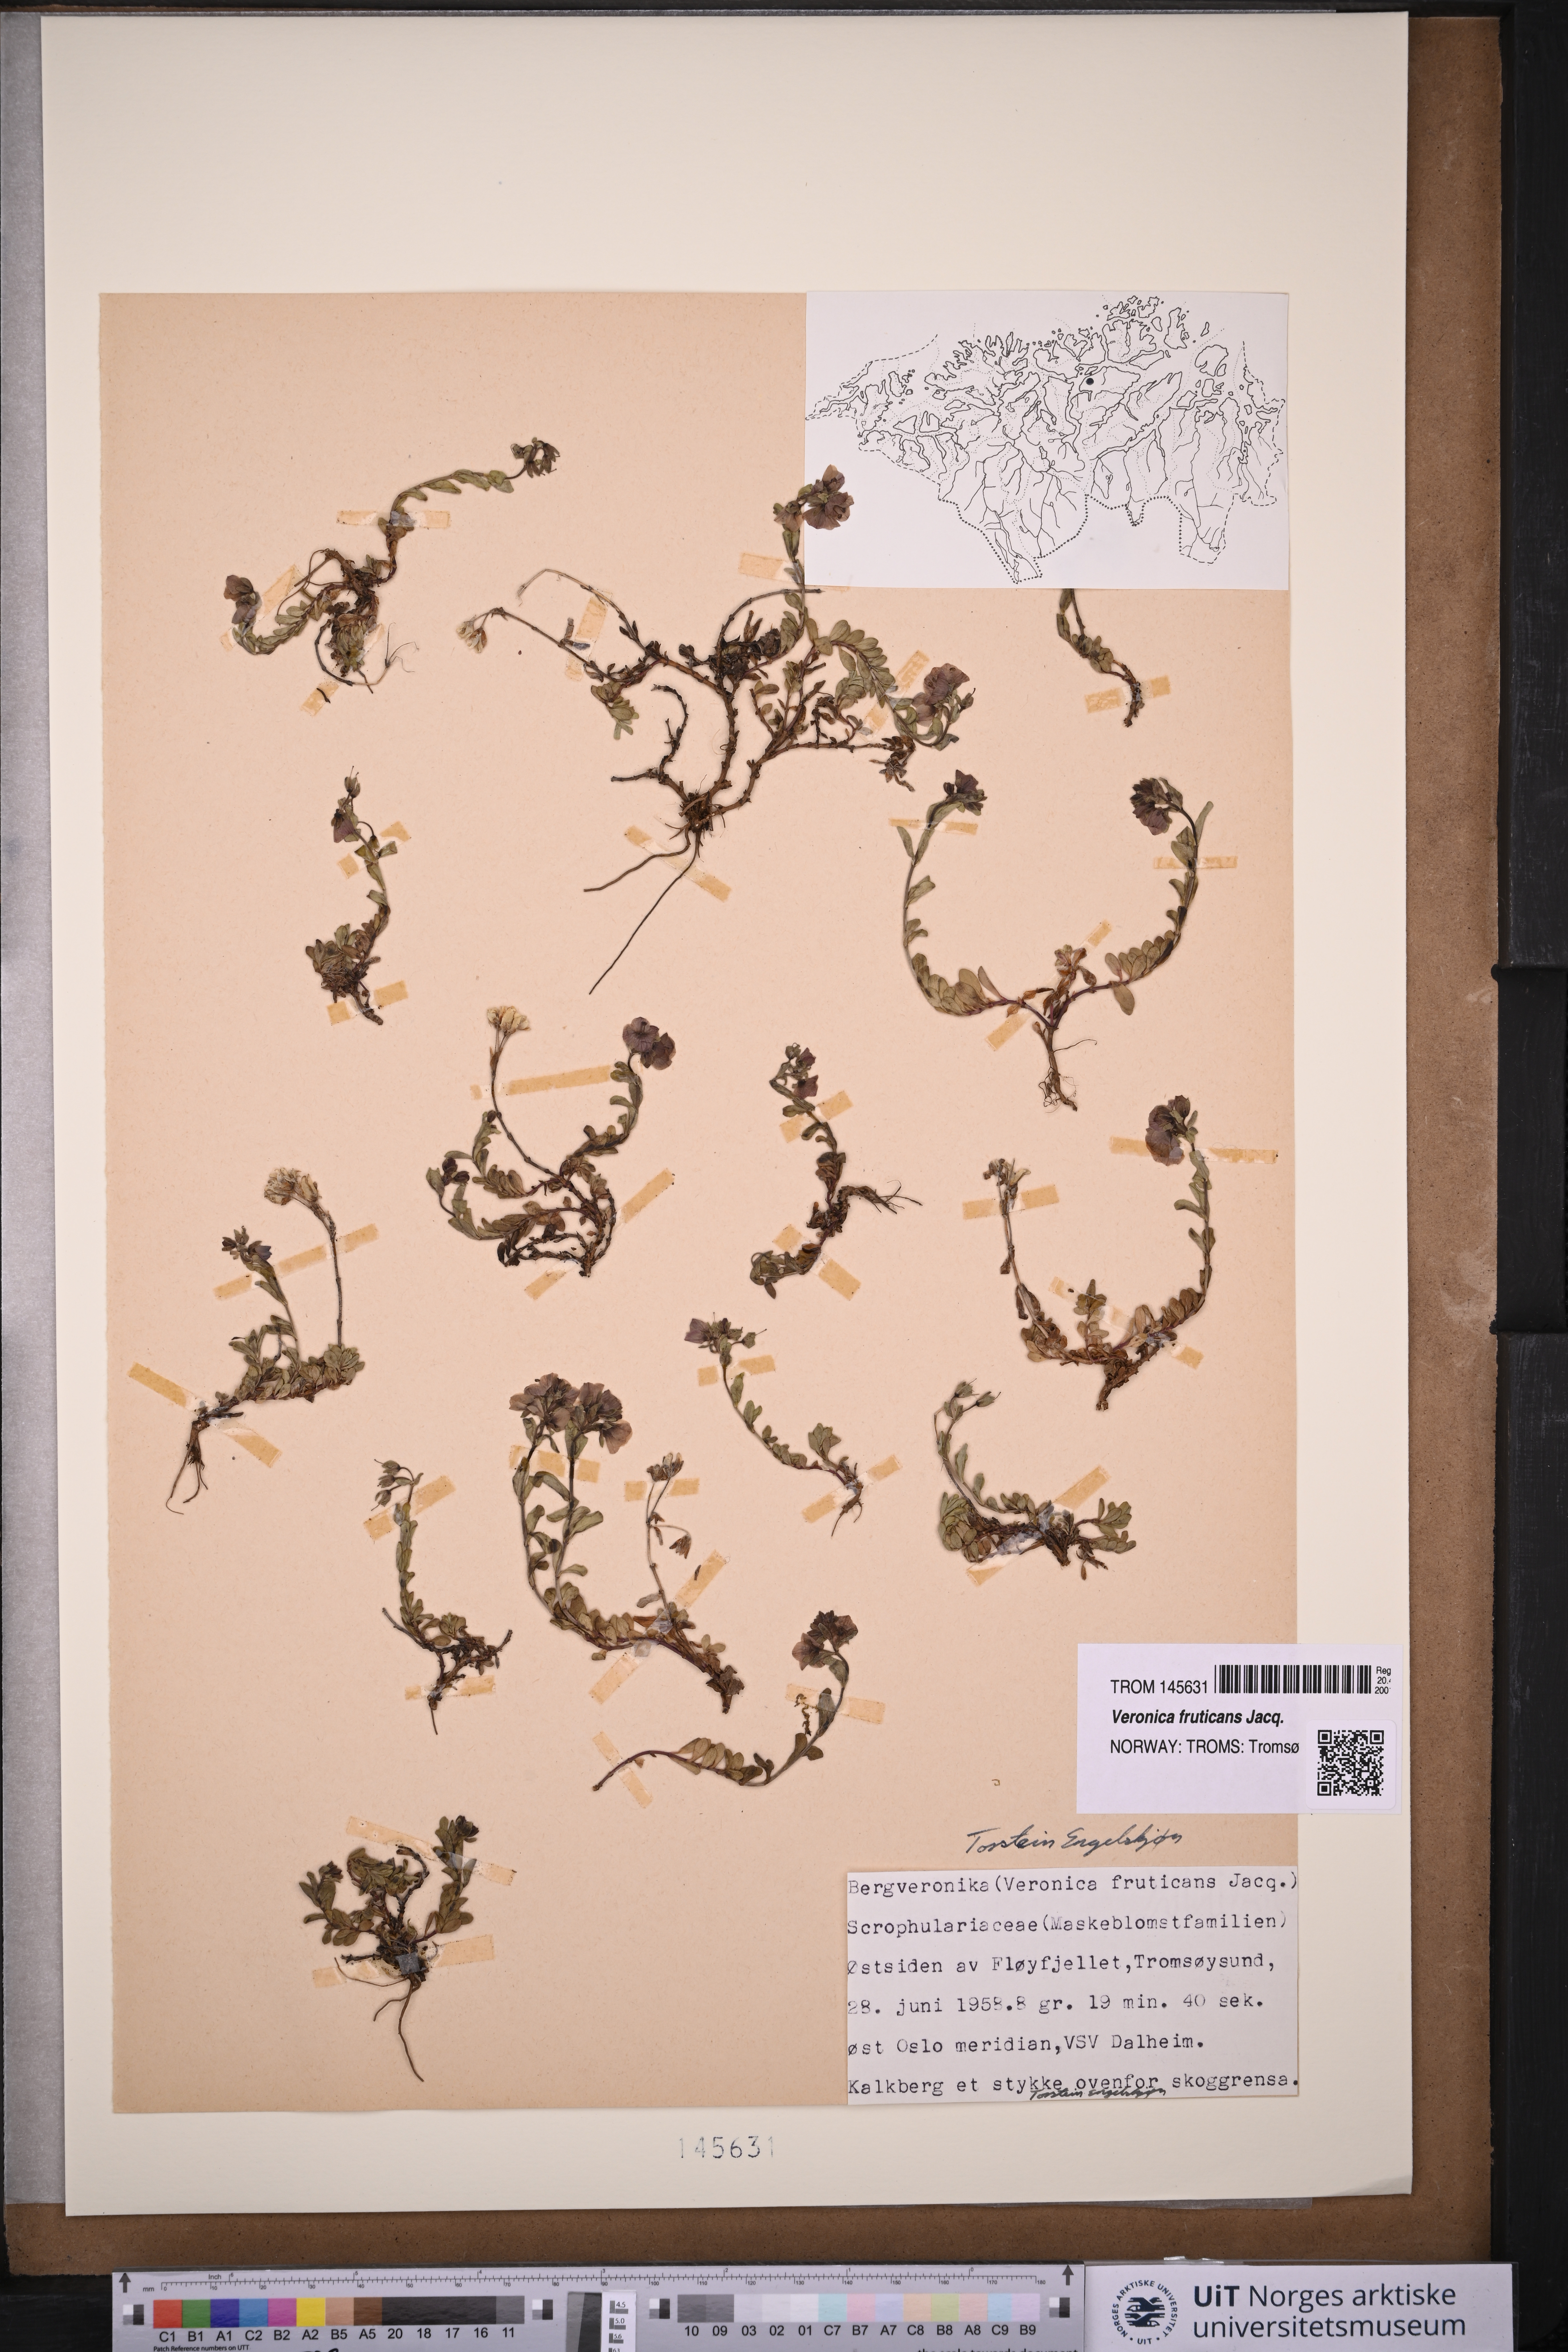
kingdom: Plantae
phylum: Tracheophyta
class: Magnoliopsida
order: Lamiales
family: Plantaginaceae
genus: Veronica
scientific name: Veronica fruticans
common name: Rock speedwell
